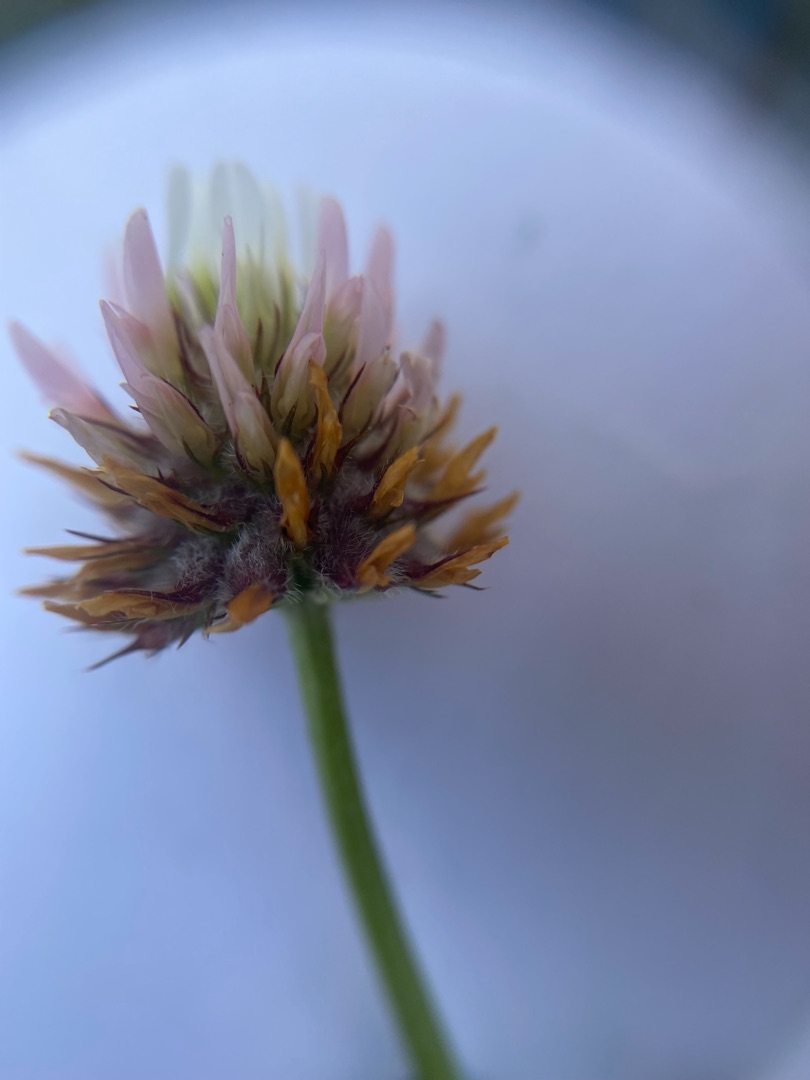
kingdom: Plantae
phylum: Tracheophyta
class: Magnoliopsida
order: Fabales
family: Fabaceae
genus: Trifolium
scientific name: Trifolium fragiferum
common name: Jordbær-kløver
